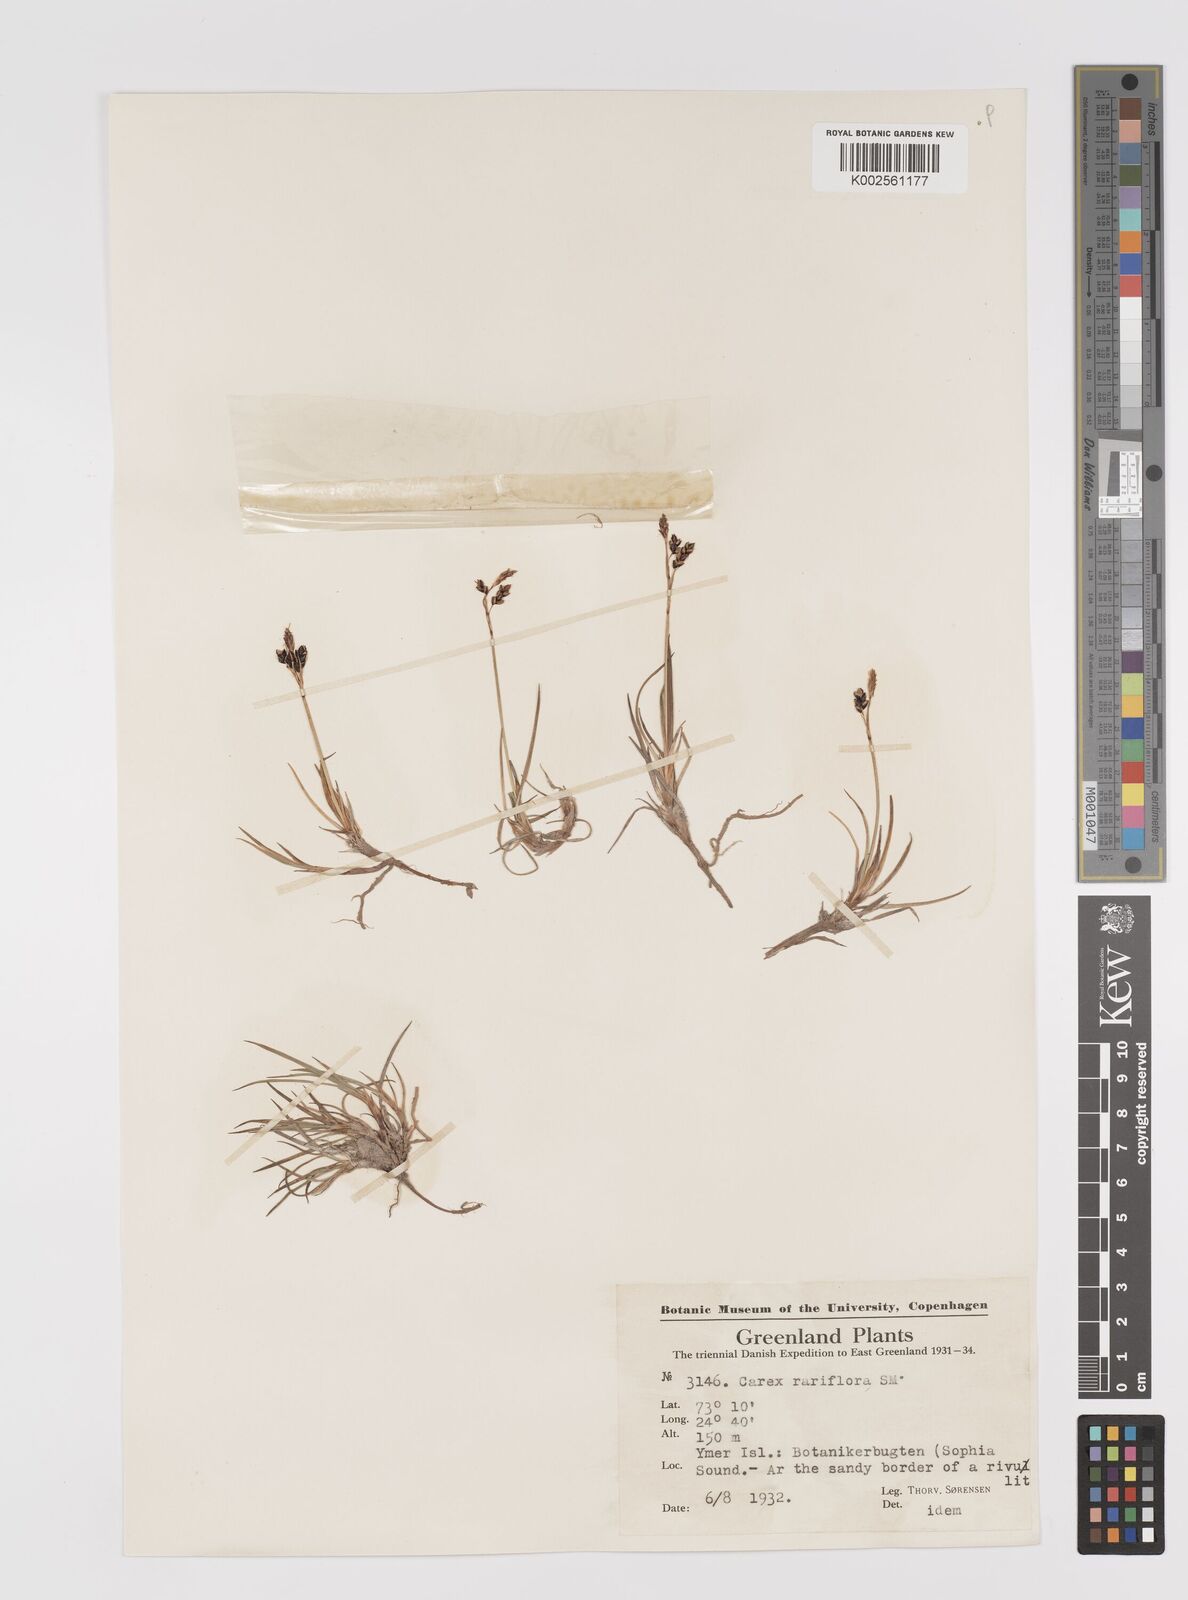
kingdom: Plantae
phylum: Tracheophyta
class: Liliopsida
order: Poales
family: Cyperaceae
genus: Carex
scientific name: Carex rariflora
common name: Loose-flowered alpine sedge
